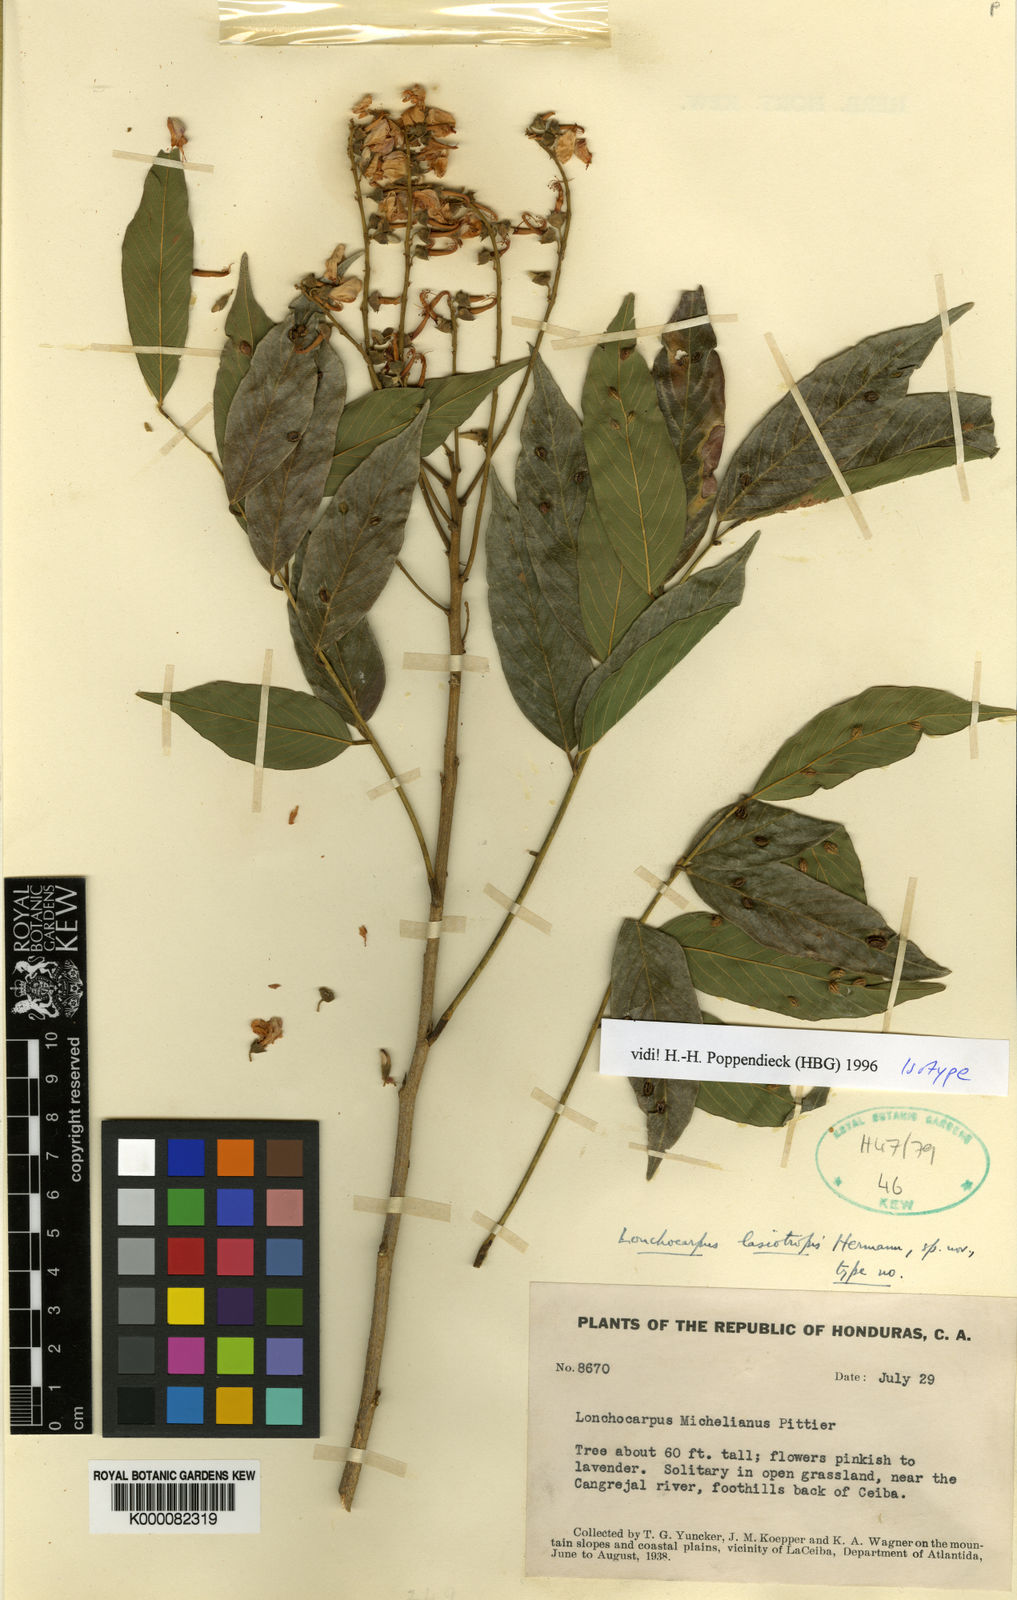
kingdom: Plantae
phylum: Tracheophyta
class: Magnoliopsida
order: Fabales
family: Fabaceae
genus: Lonchocarpus
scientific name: Lonchocarpus lasiotropis
